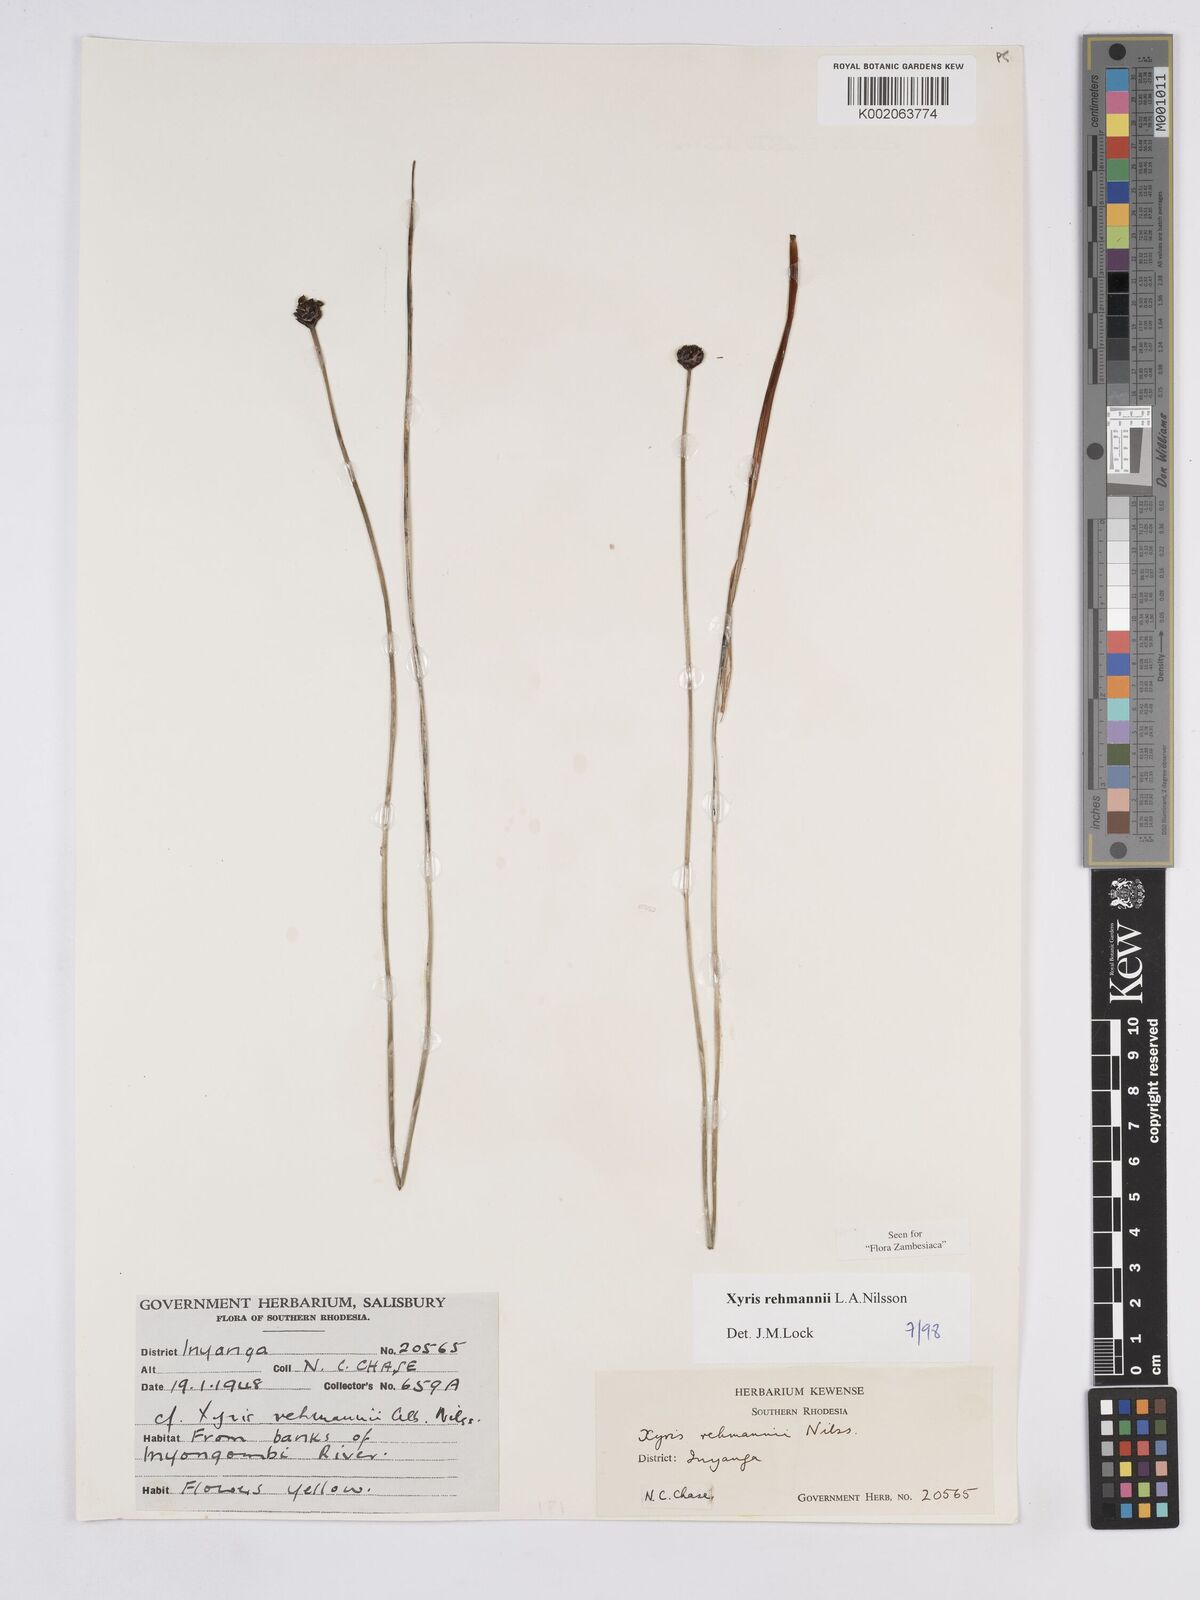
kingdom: Plantae
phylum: Tracheophyta
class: Liliopsida
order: Poales
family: Xyridaceae
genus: Xyris
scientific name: Xyris rehmannii
